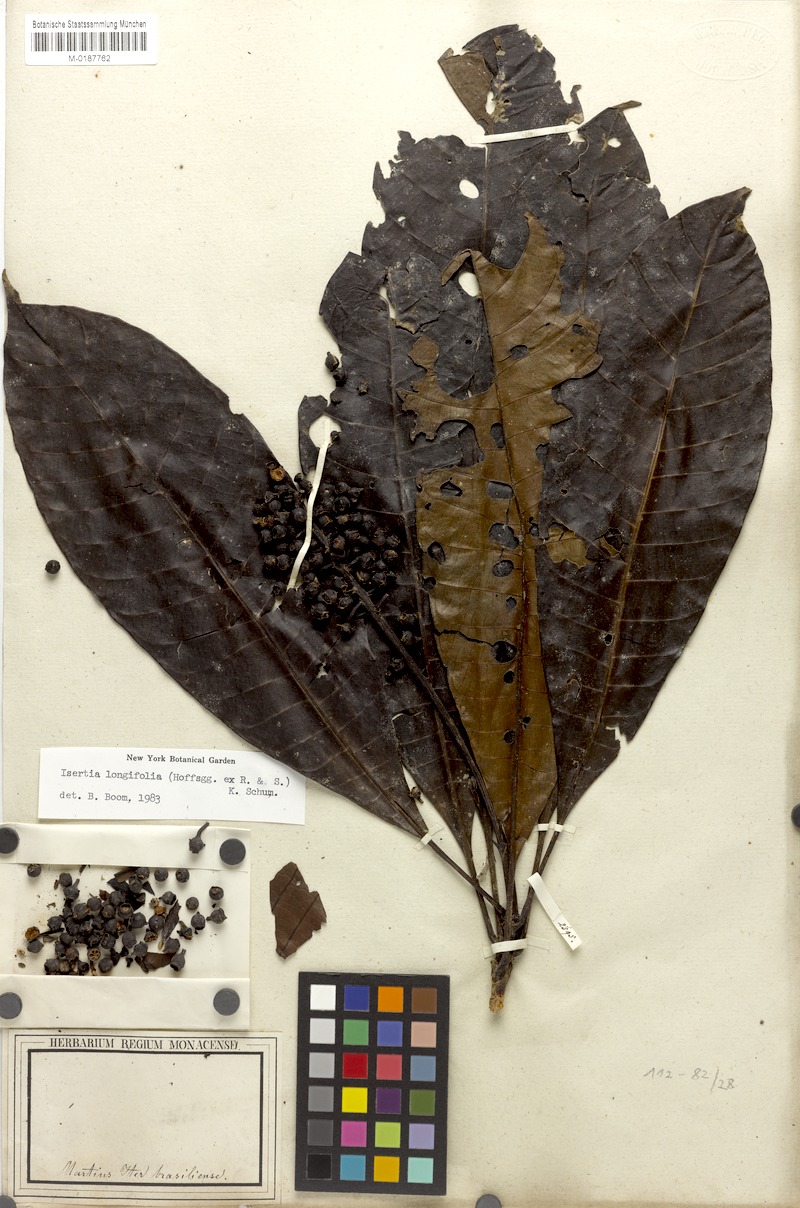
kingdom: Plantae
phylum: Tracheophyta
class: Magnoliopsida
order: Gentianales
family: Rubiaceae
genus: Isertia
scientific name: Isertia longifolia
